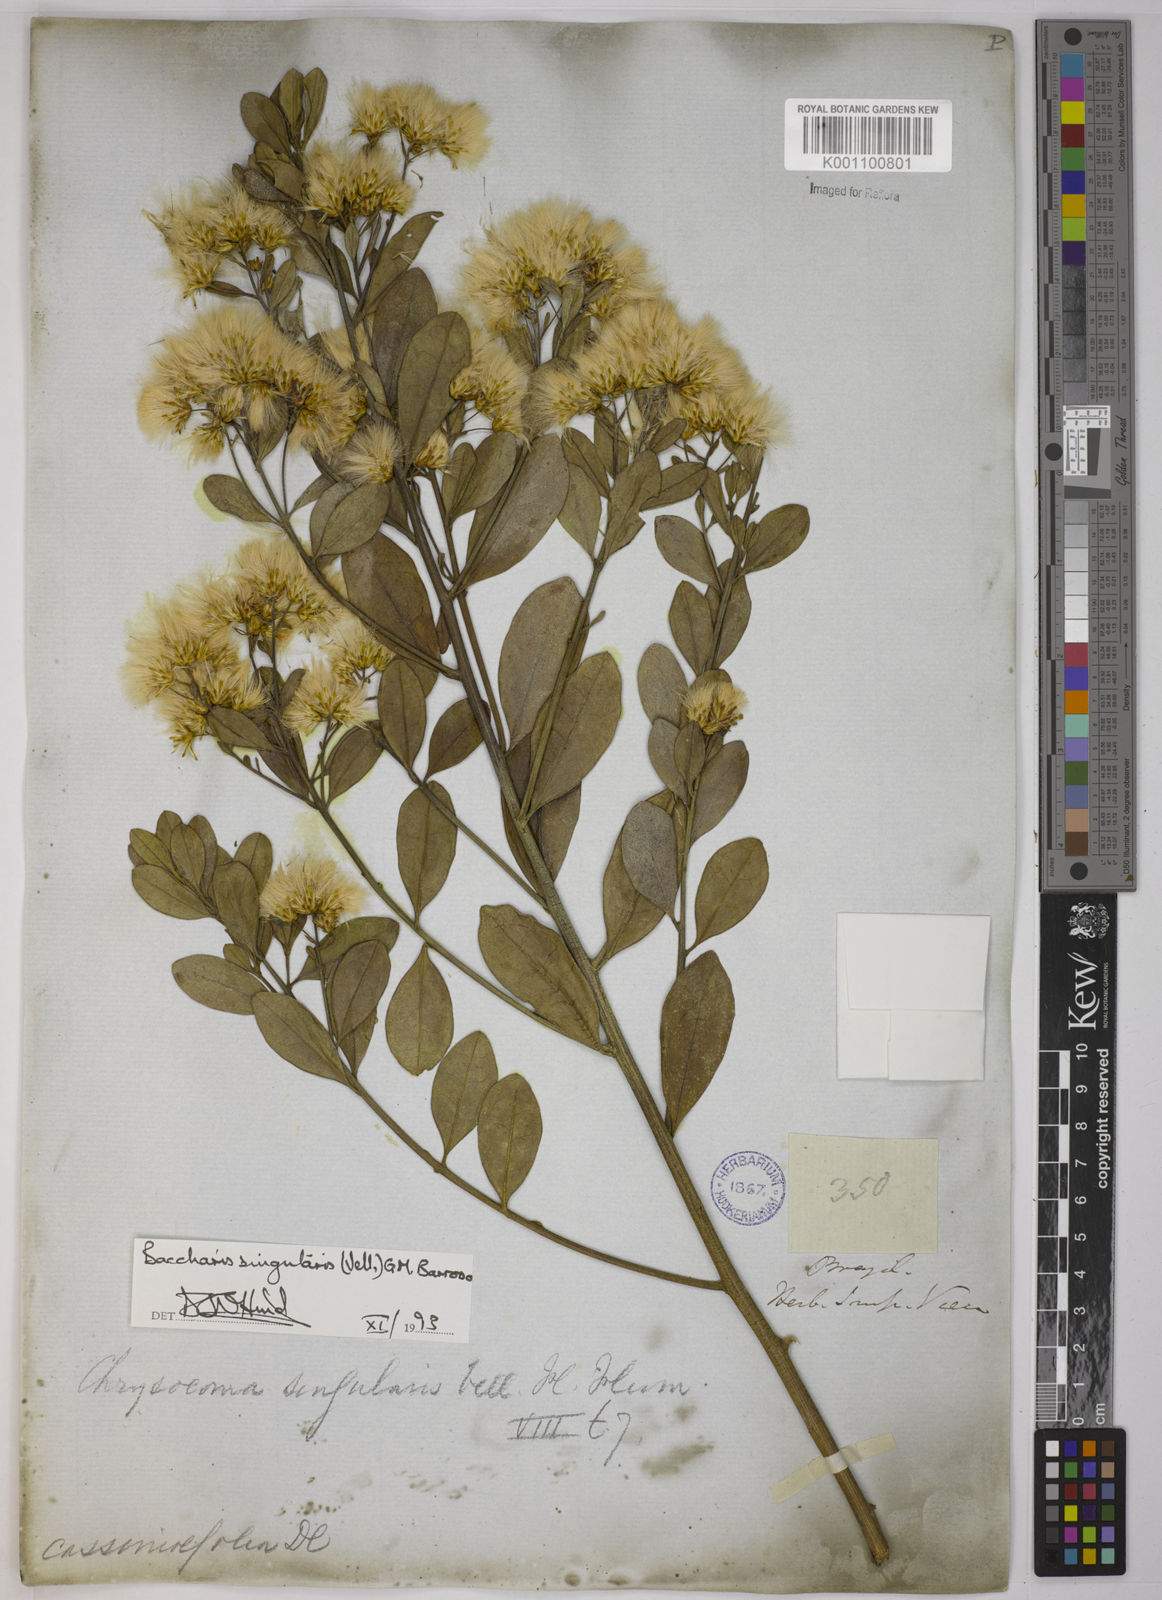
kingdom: Plantae
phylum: Tracheophyta
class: Magnoliopsida
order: Asterales
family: Asteraceae
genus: Baccharis
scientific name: Baccharis
